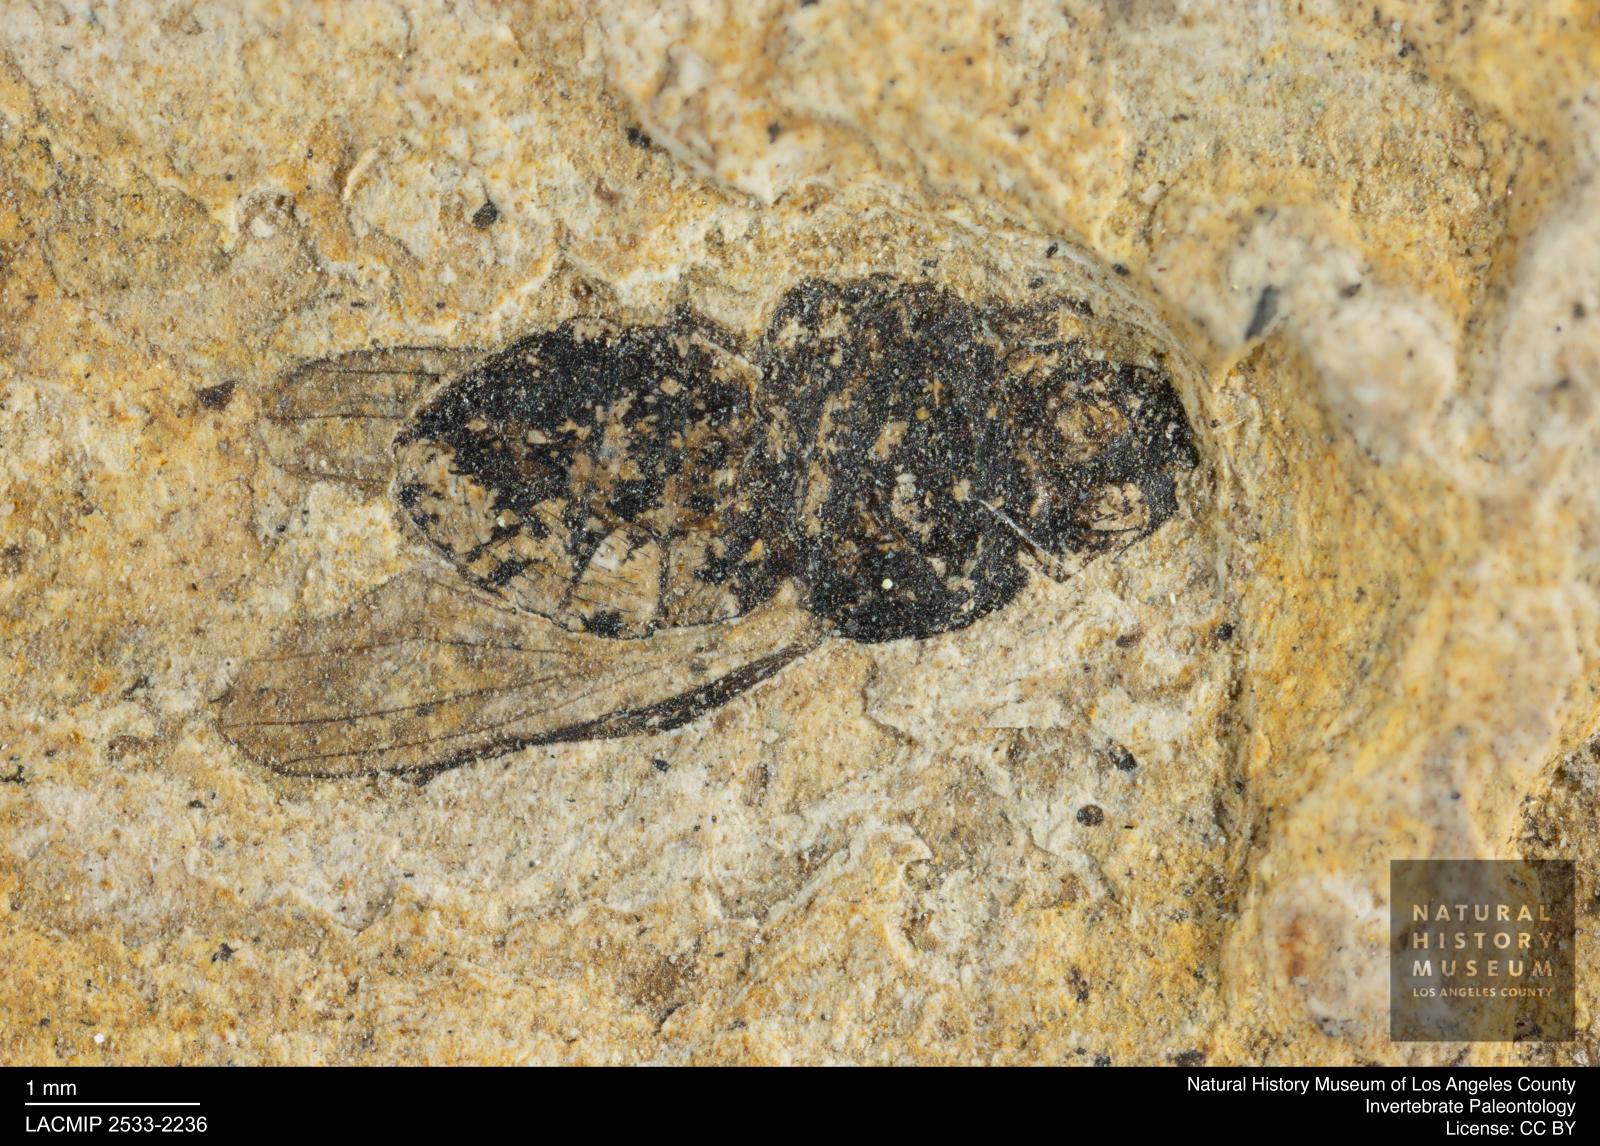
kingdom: Animalia
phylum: Arthropoda
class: Insecta
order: Diptera
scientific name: Diptera
